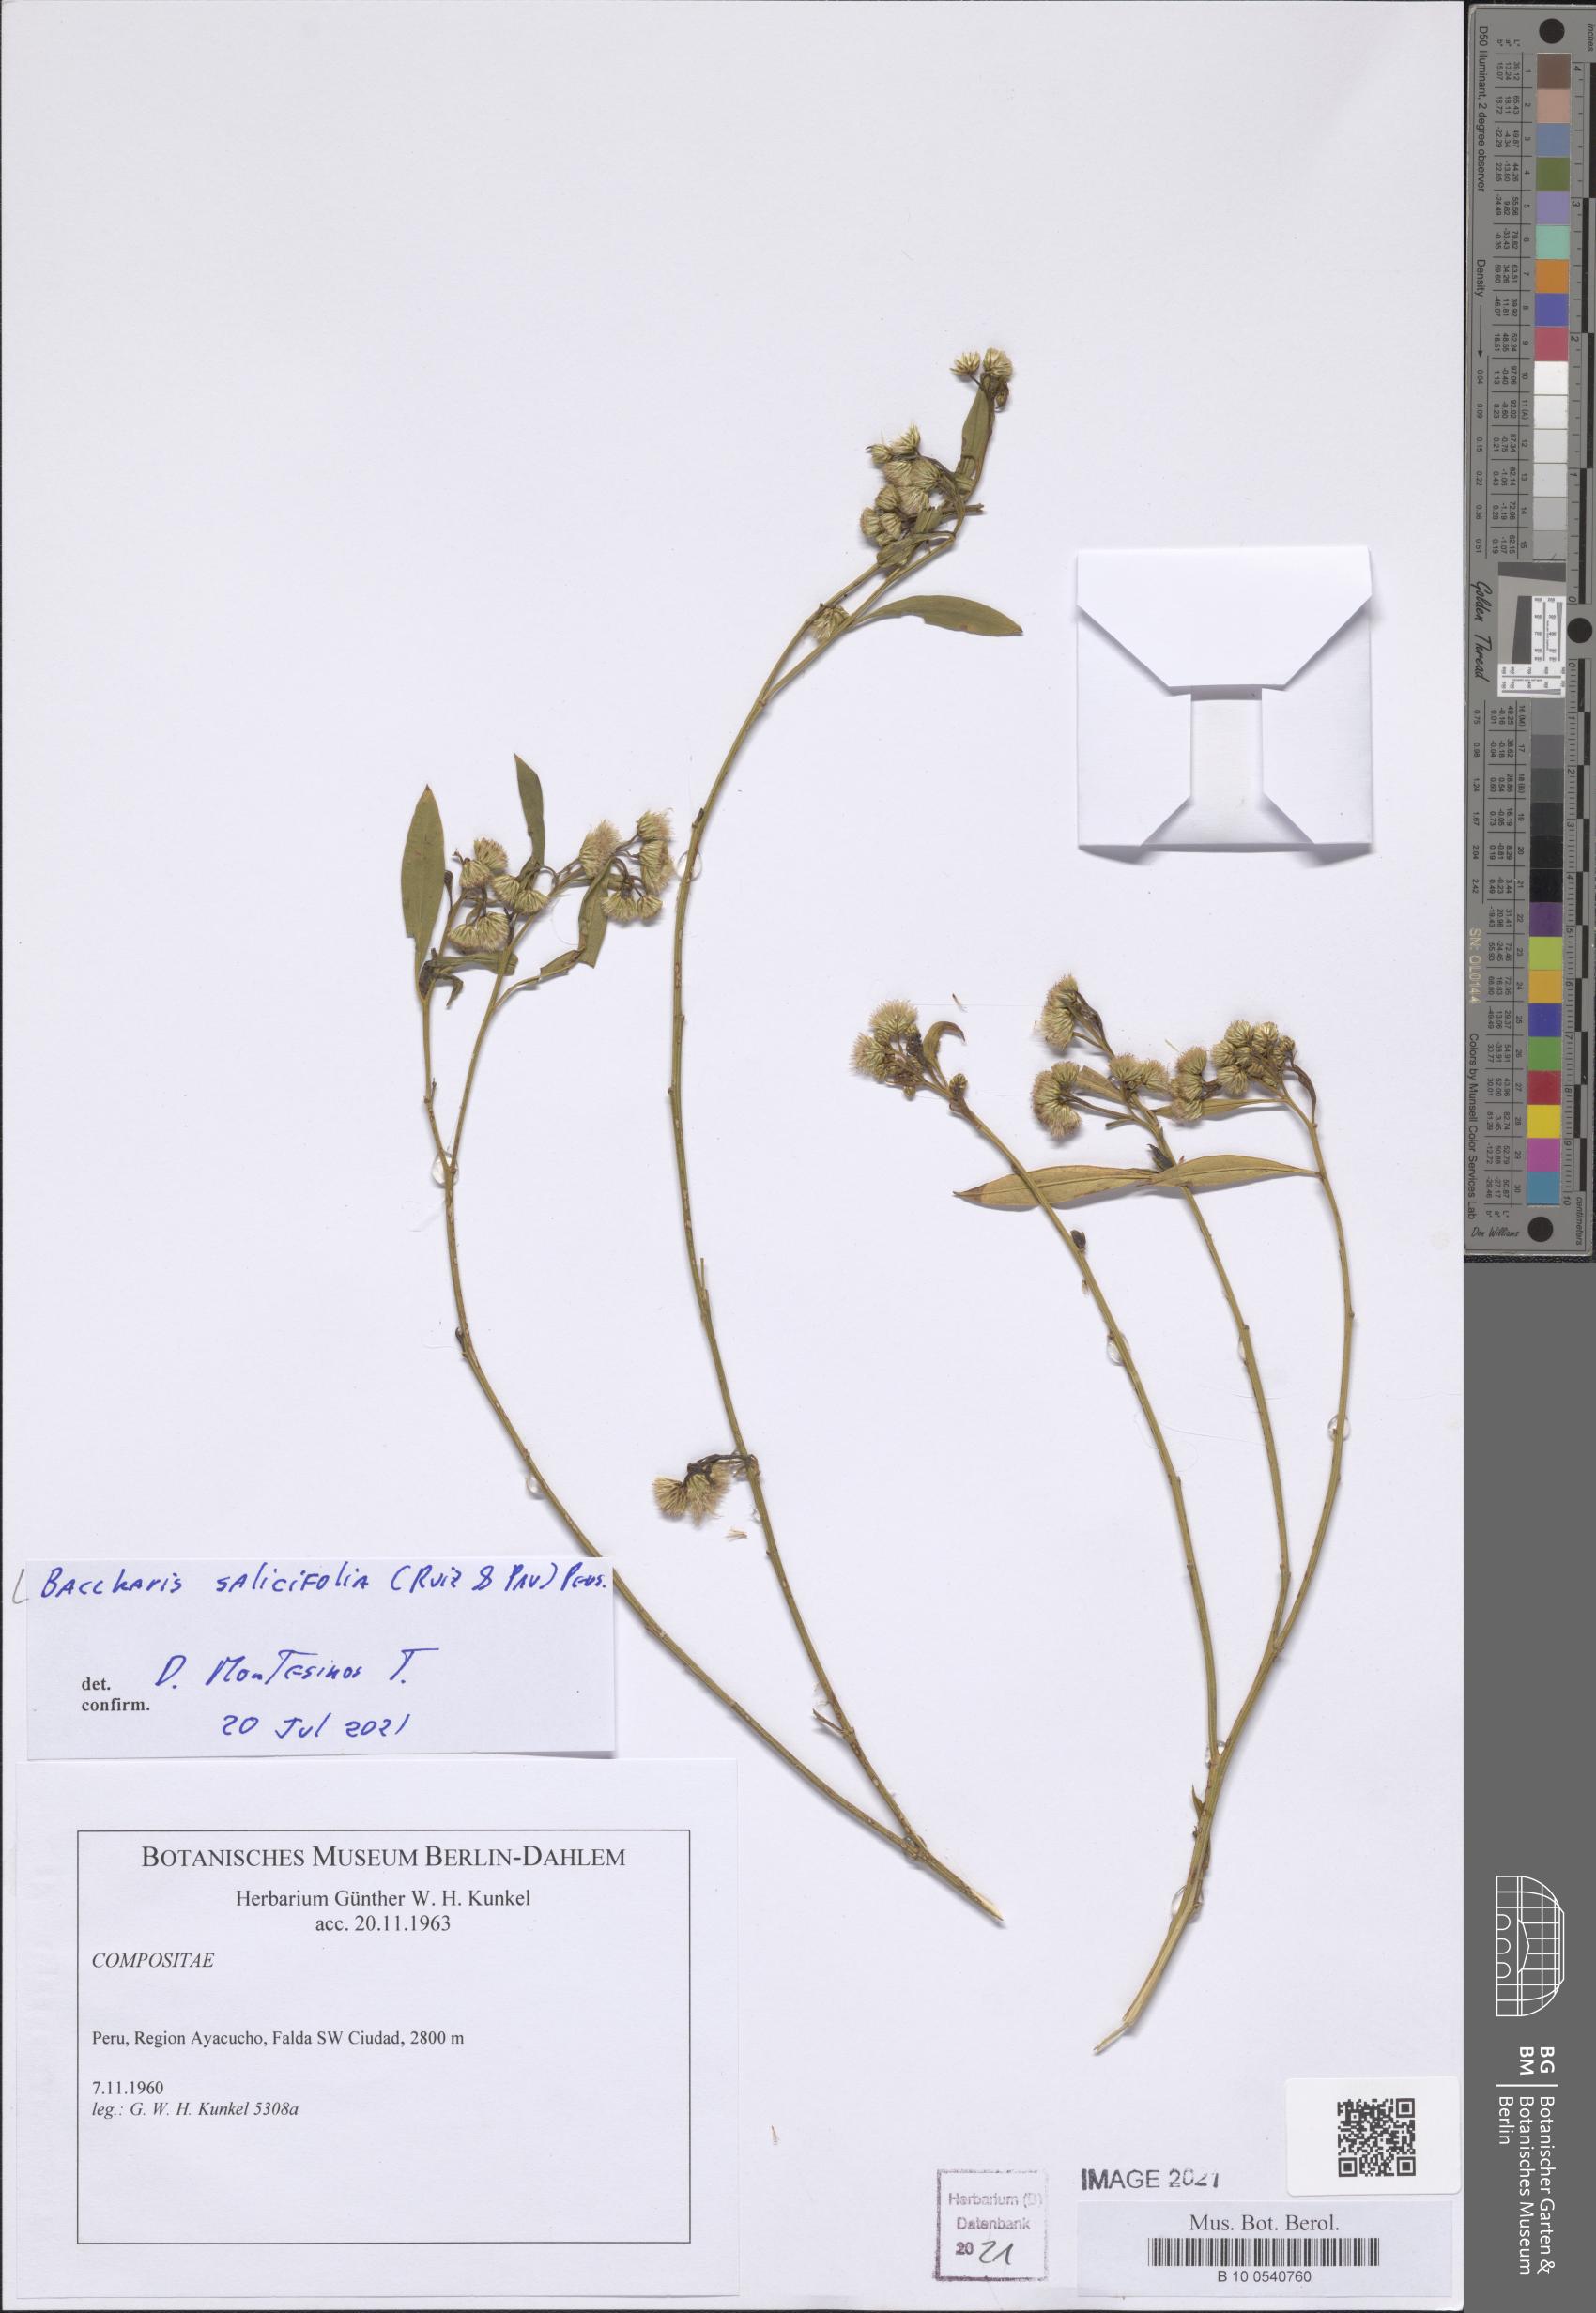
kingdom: Plantae
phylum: Tracheophyta
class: Magnoliopsida
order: Asterales
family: Asteraceae
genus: Baccharis
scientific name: Baccharis salicifolia
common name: Sticky baccharis
